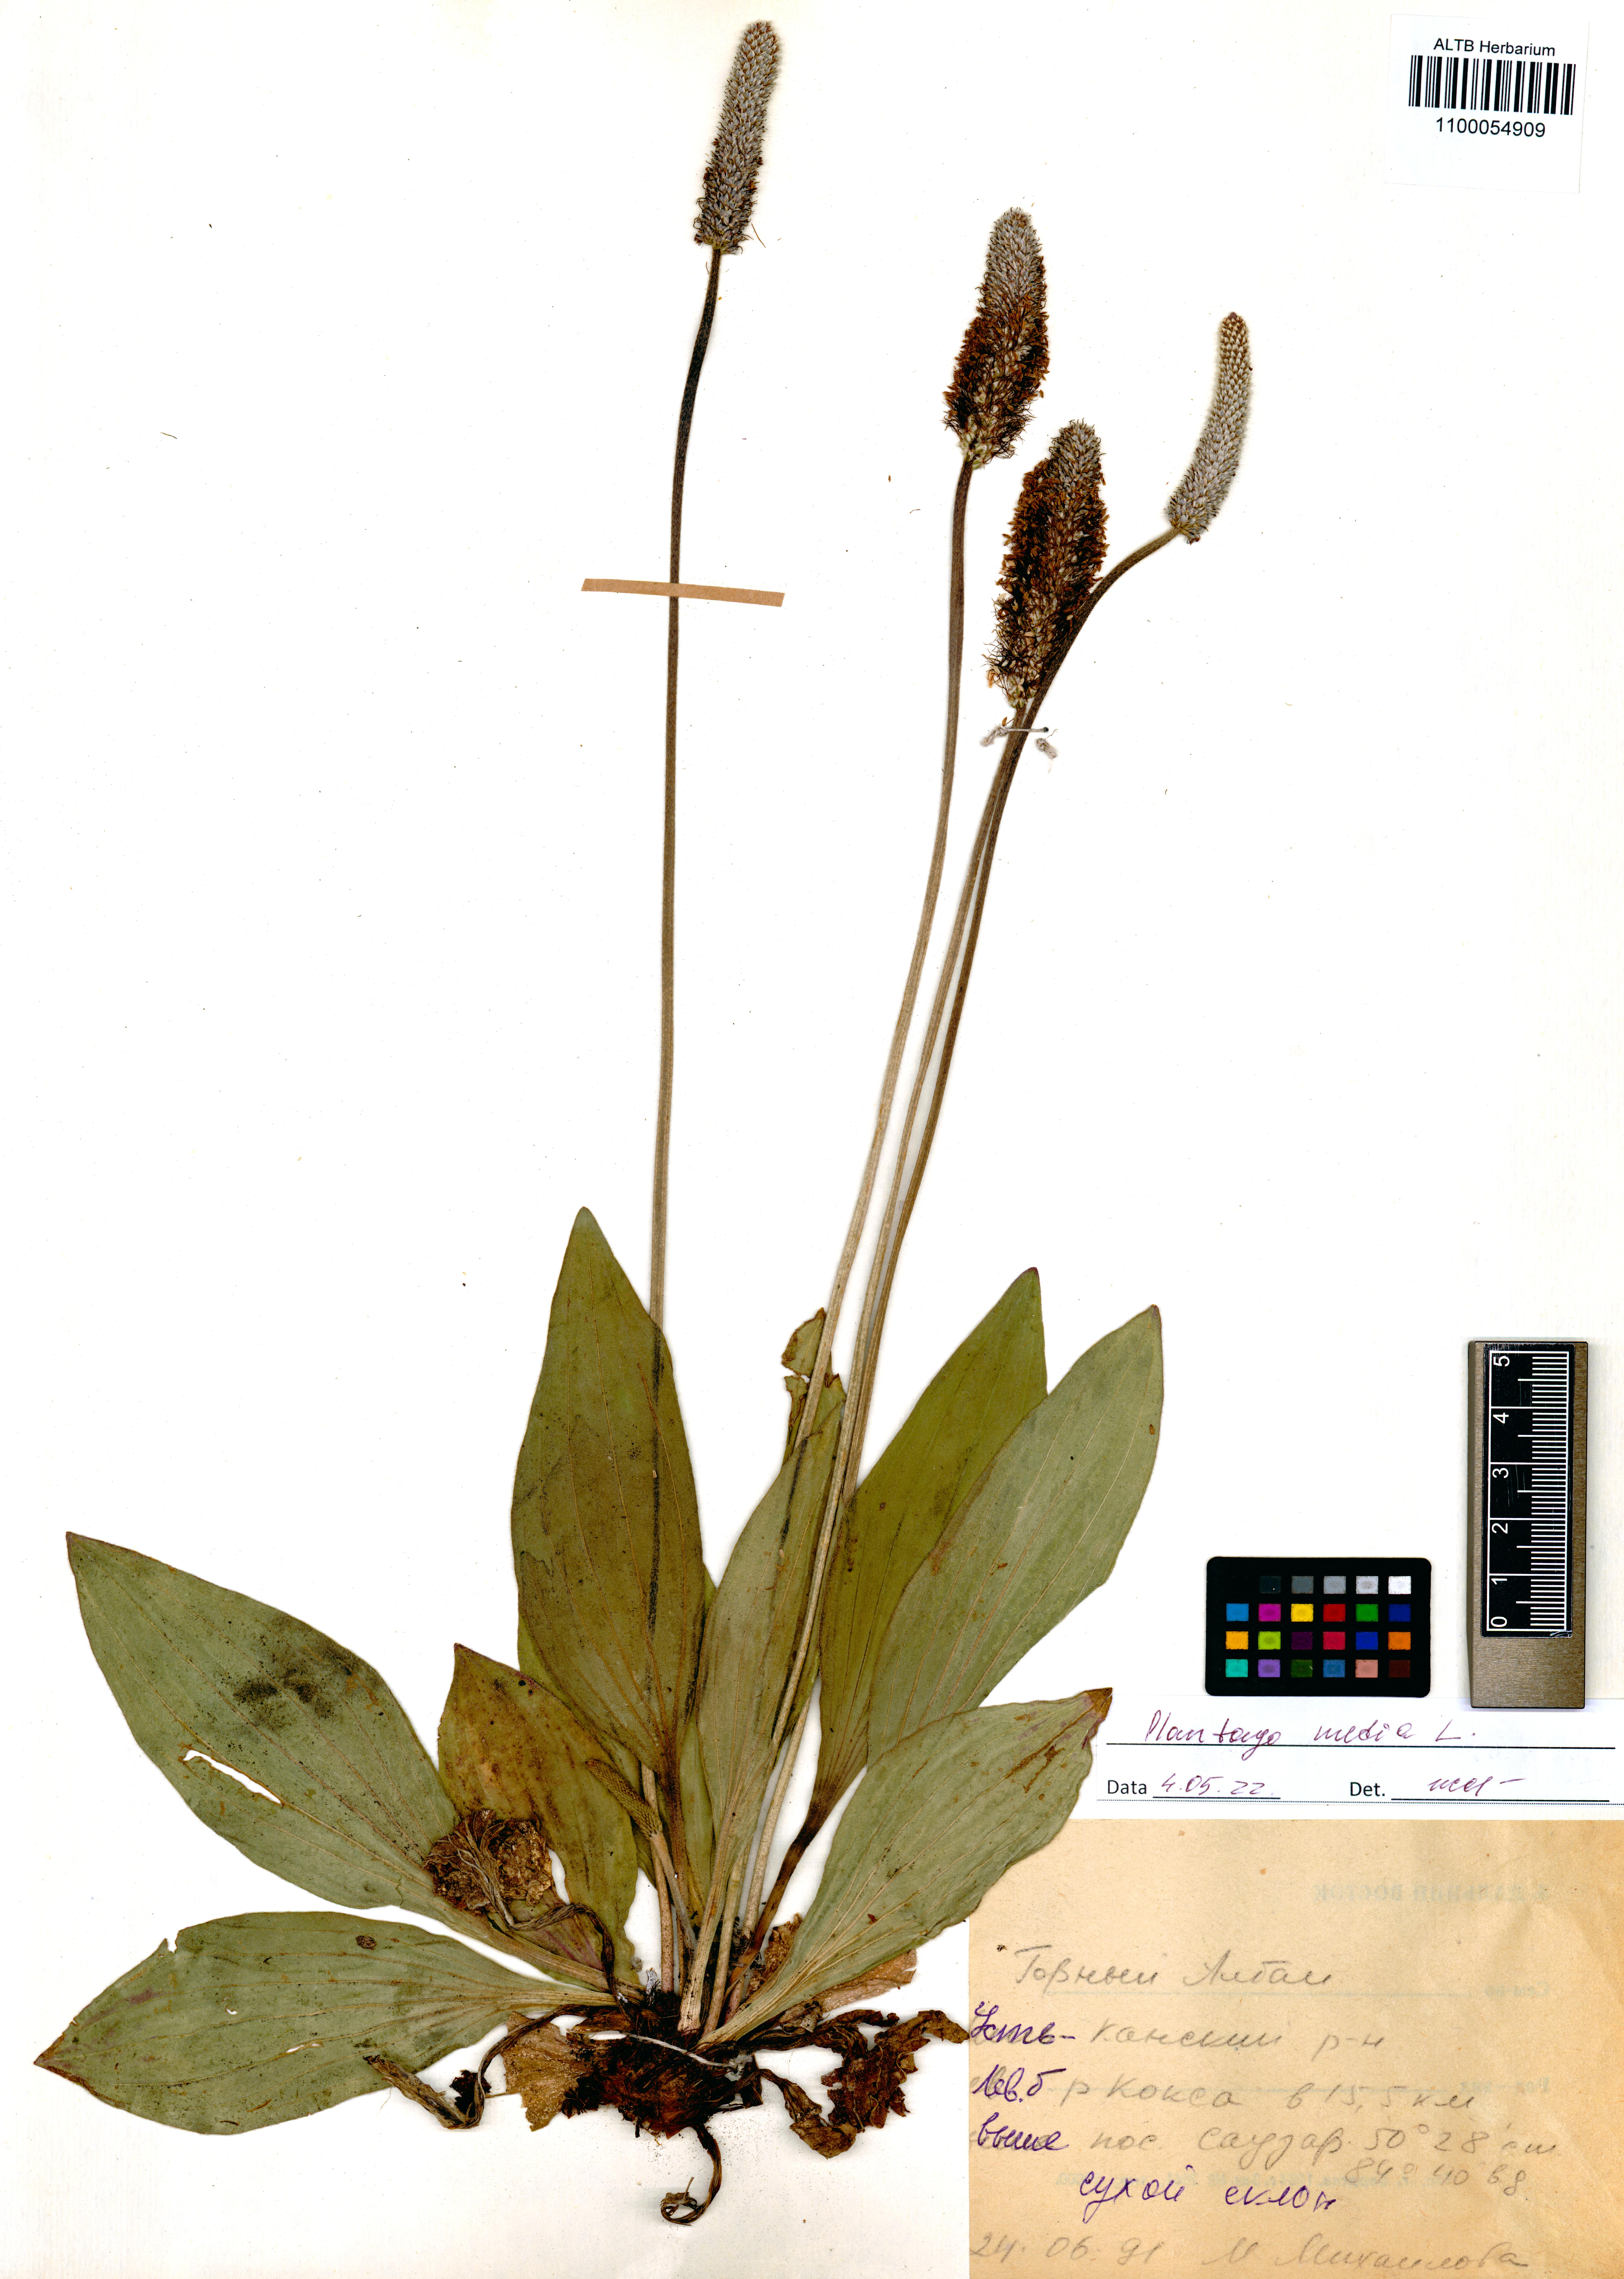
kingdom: Plantae
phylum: Tracheophyta
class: Magnoliopsida
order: Lamiales
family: Plantaginaceae
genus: Plantago
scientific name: Plantago media
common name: Hoary plantain
